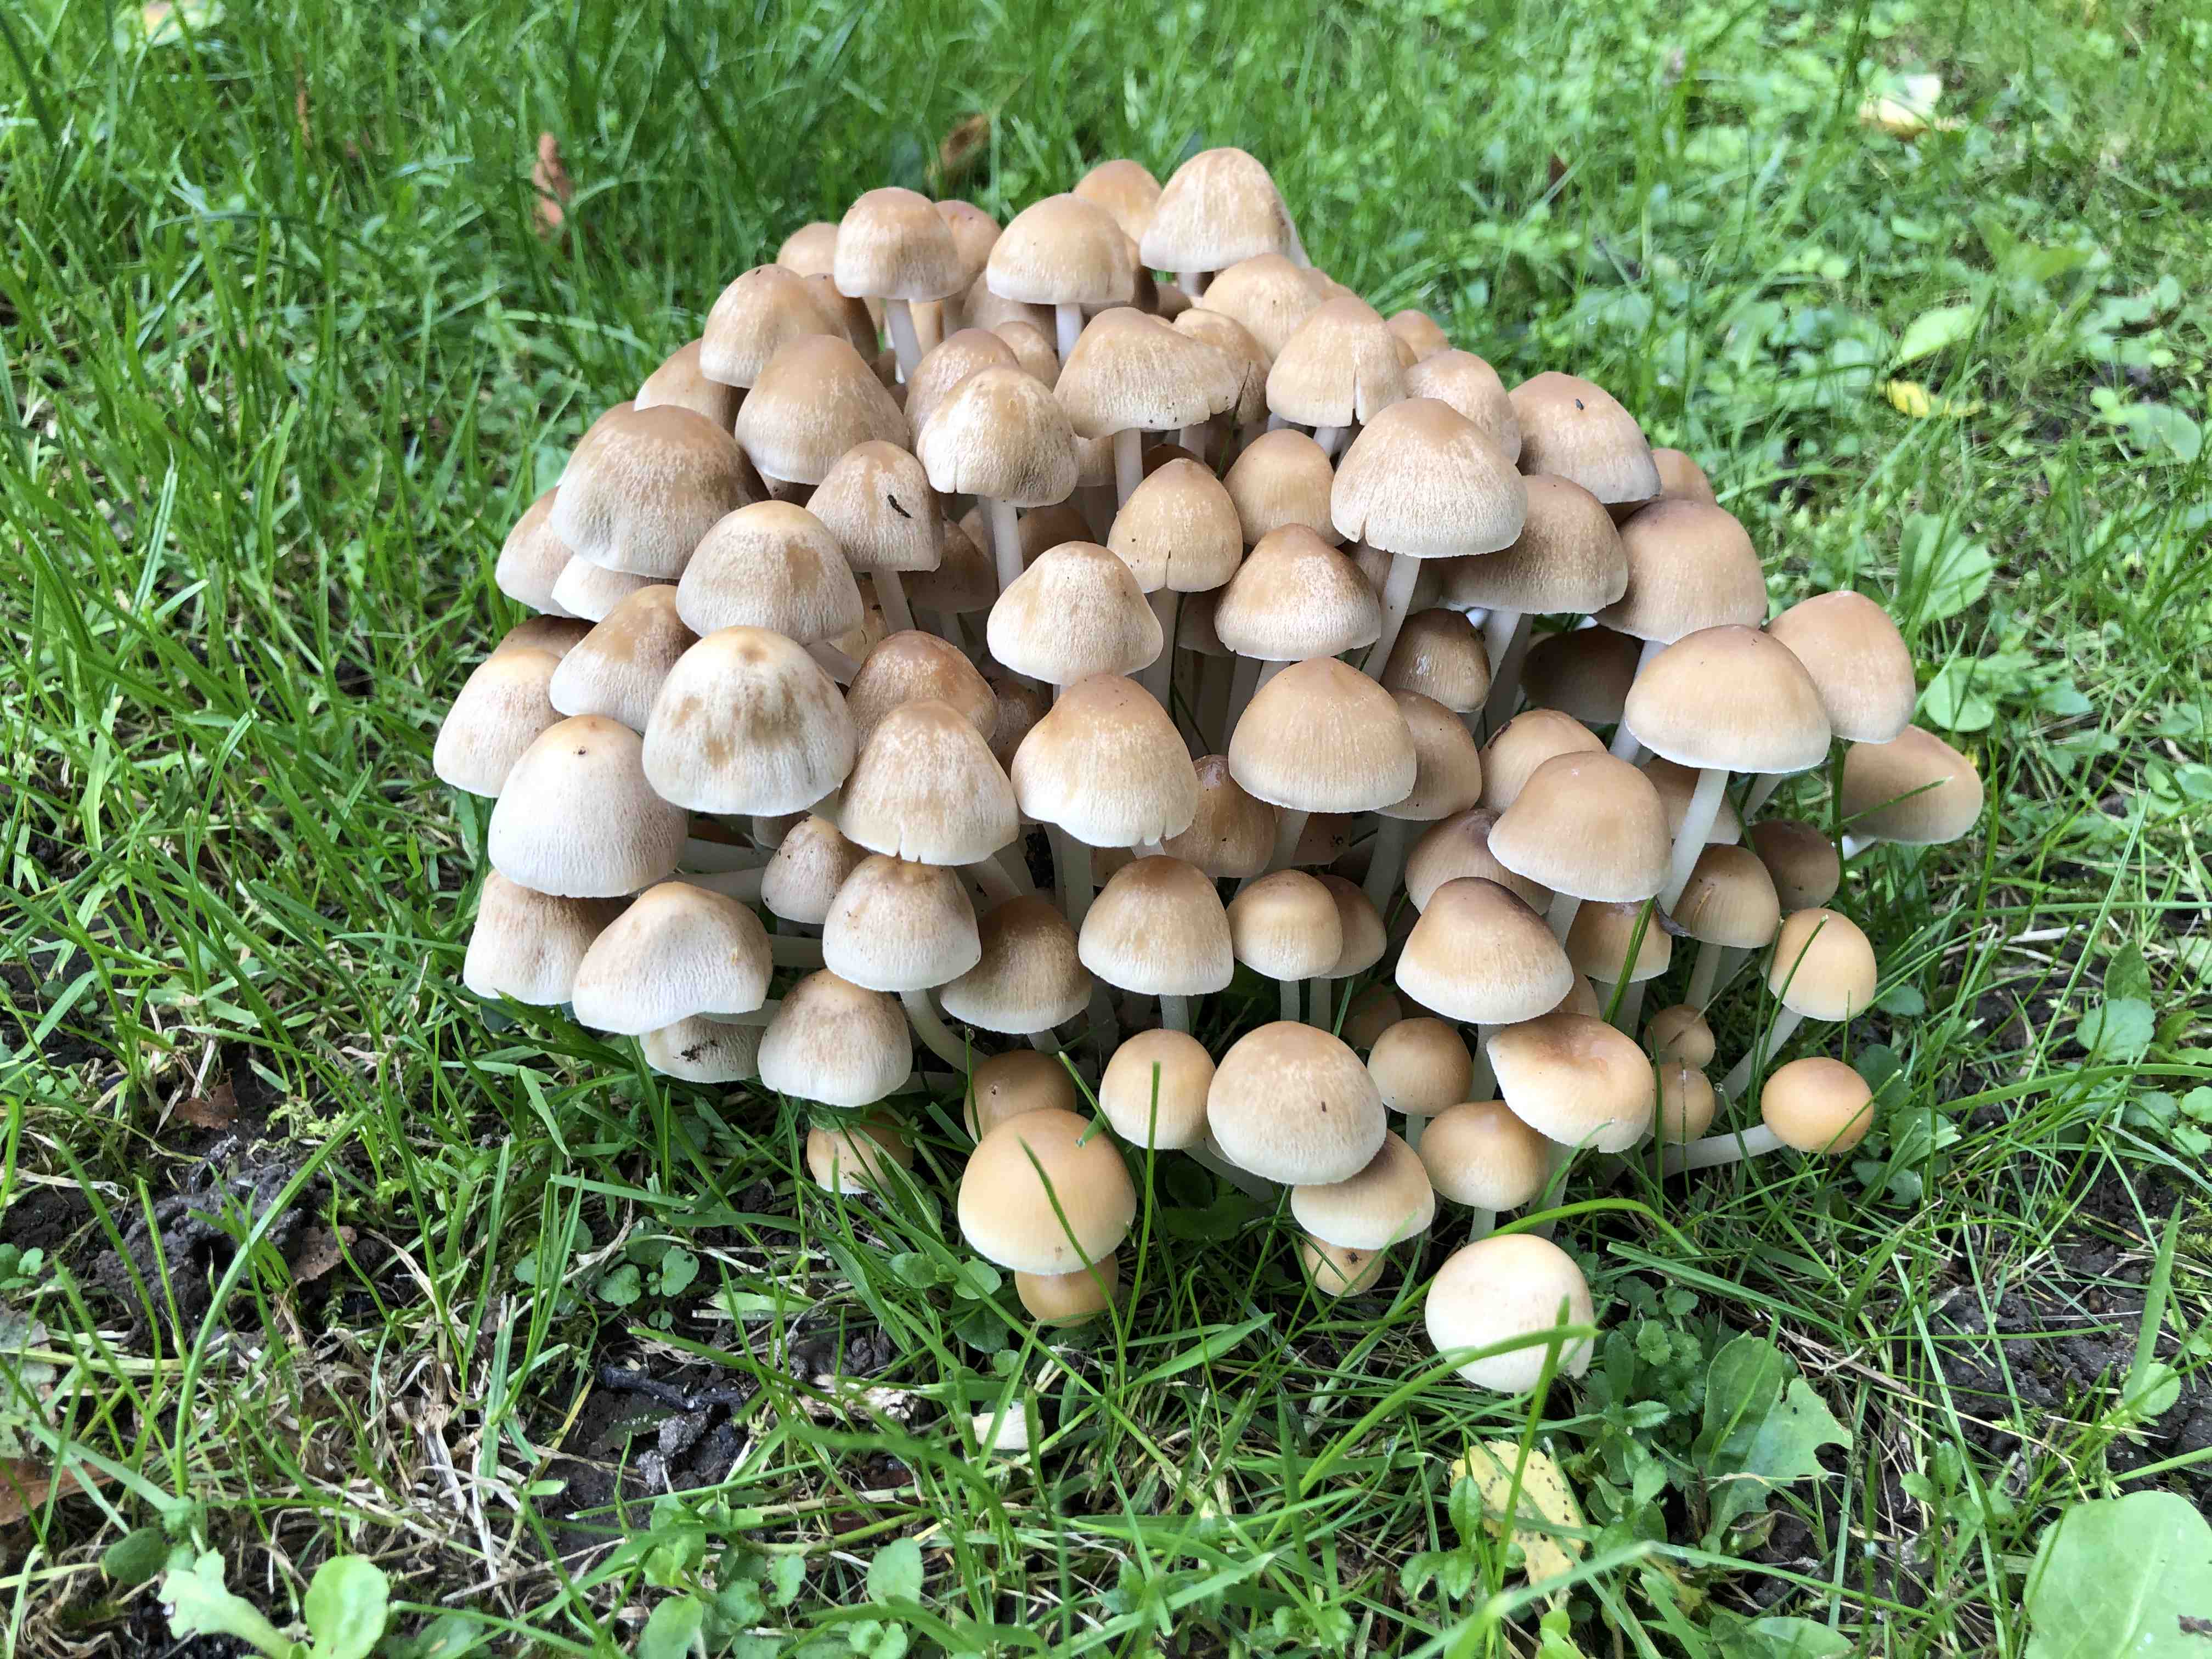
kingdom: Fungi
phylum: Basidiomycota
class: Agaricomycetes
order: Agaricales
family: Psathyrellaceae
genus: Britzelmayria
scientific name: Britzelmayria multipedata
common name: knippe-mørkhat
